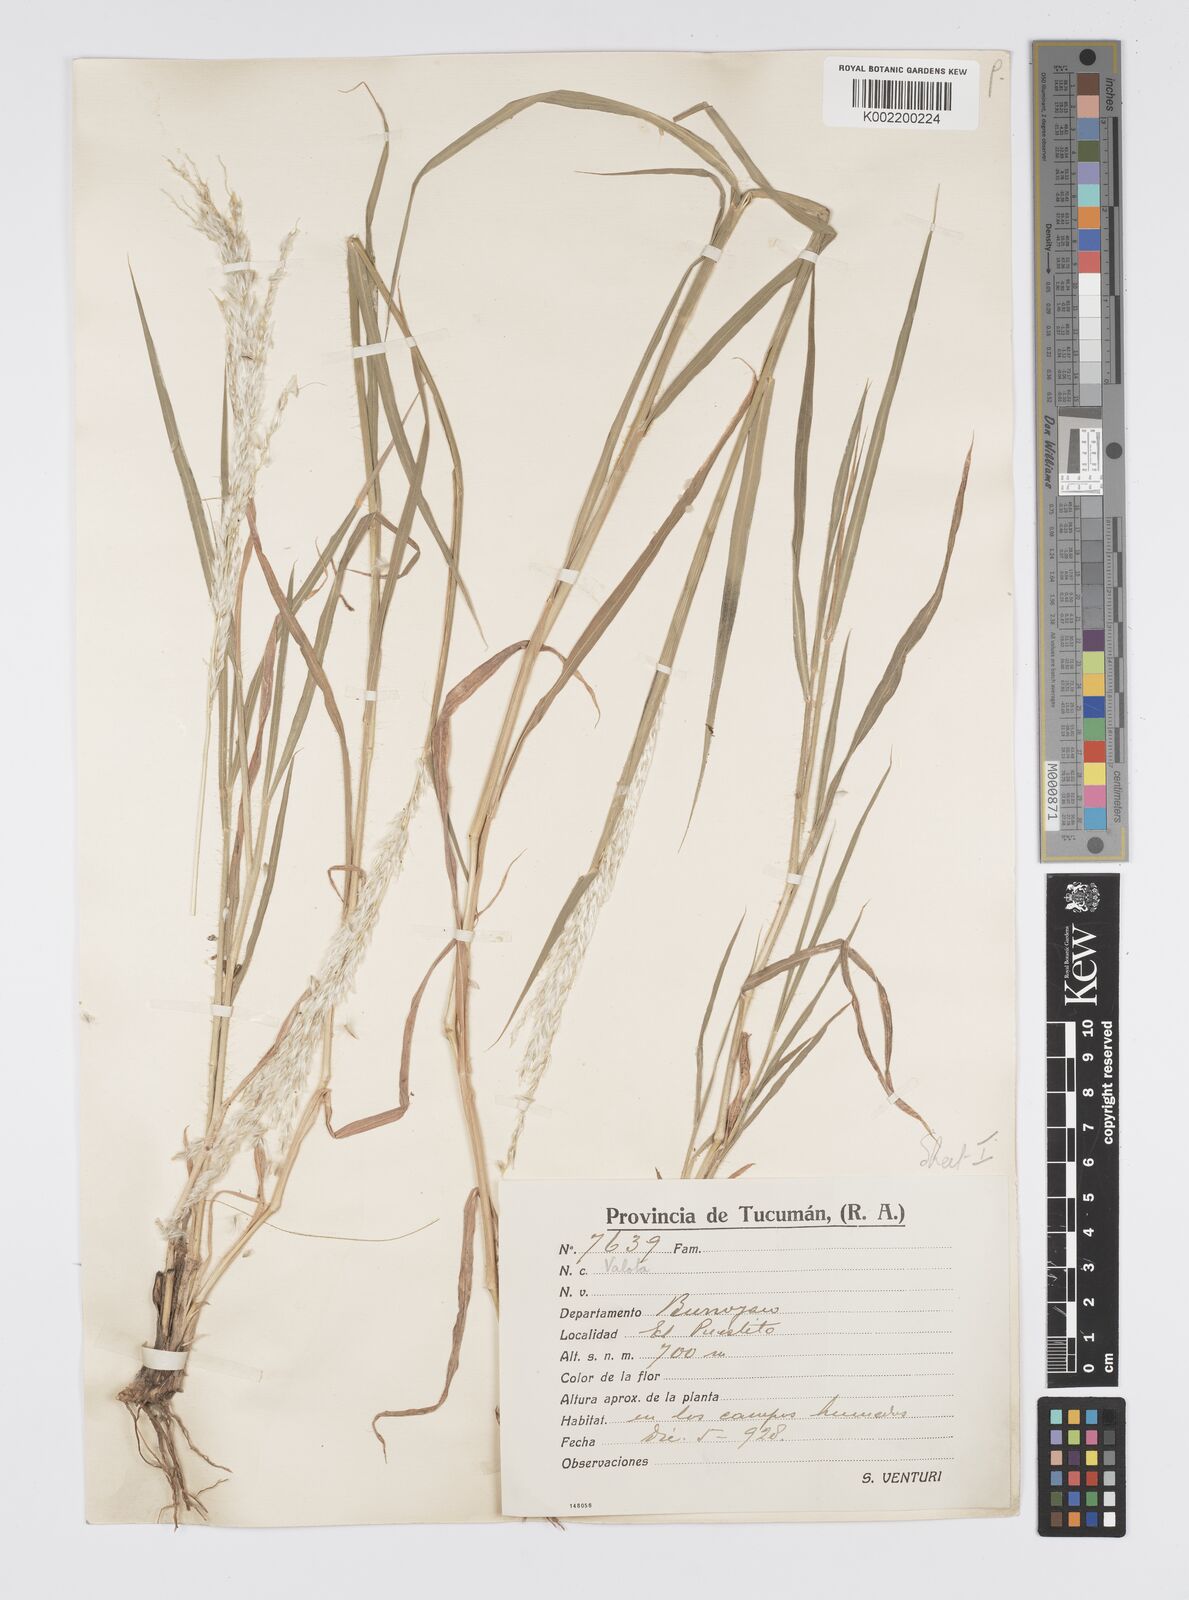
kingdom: Plantae
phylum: Tracheophyta
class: Liliopsida
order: Poales
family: Poaceae
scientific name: Poaceae
